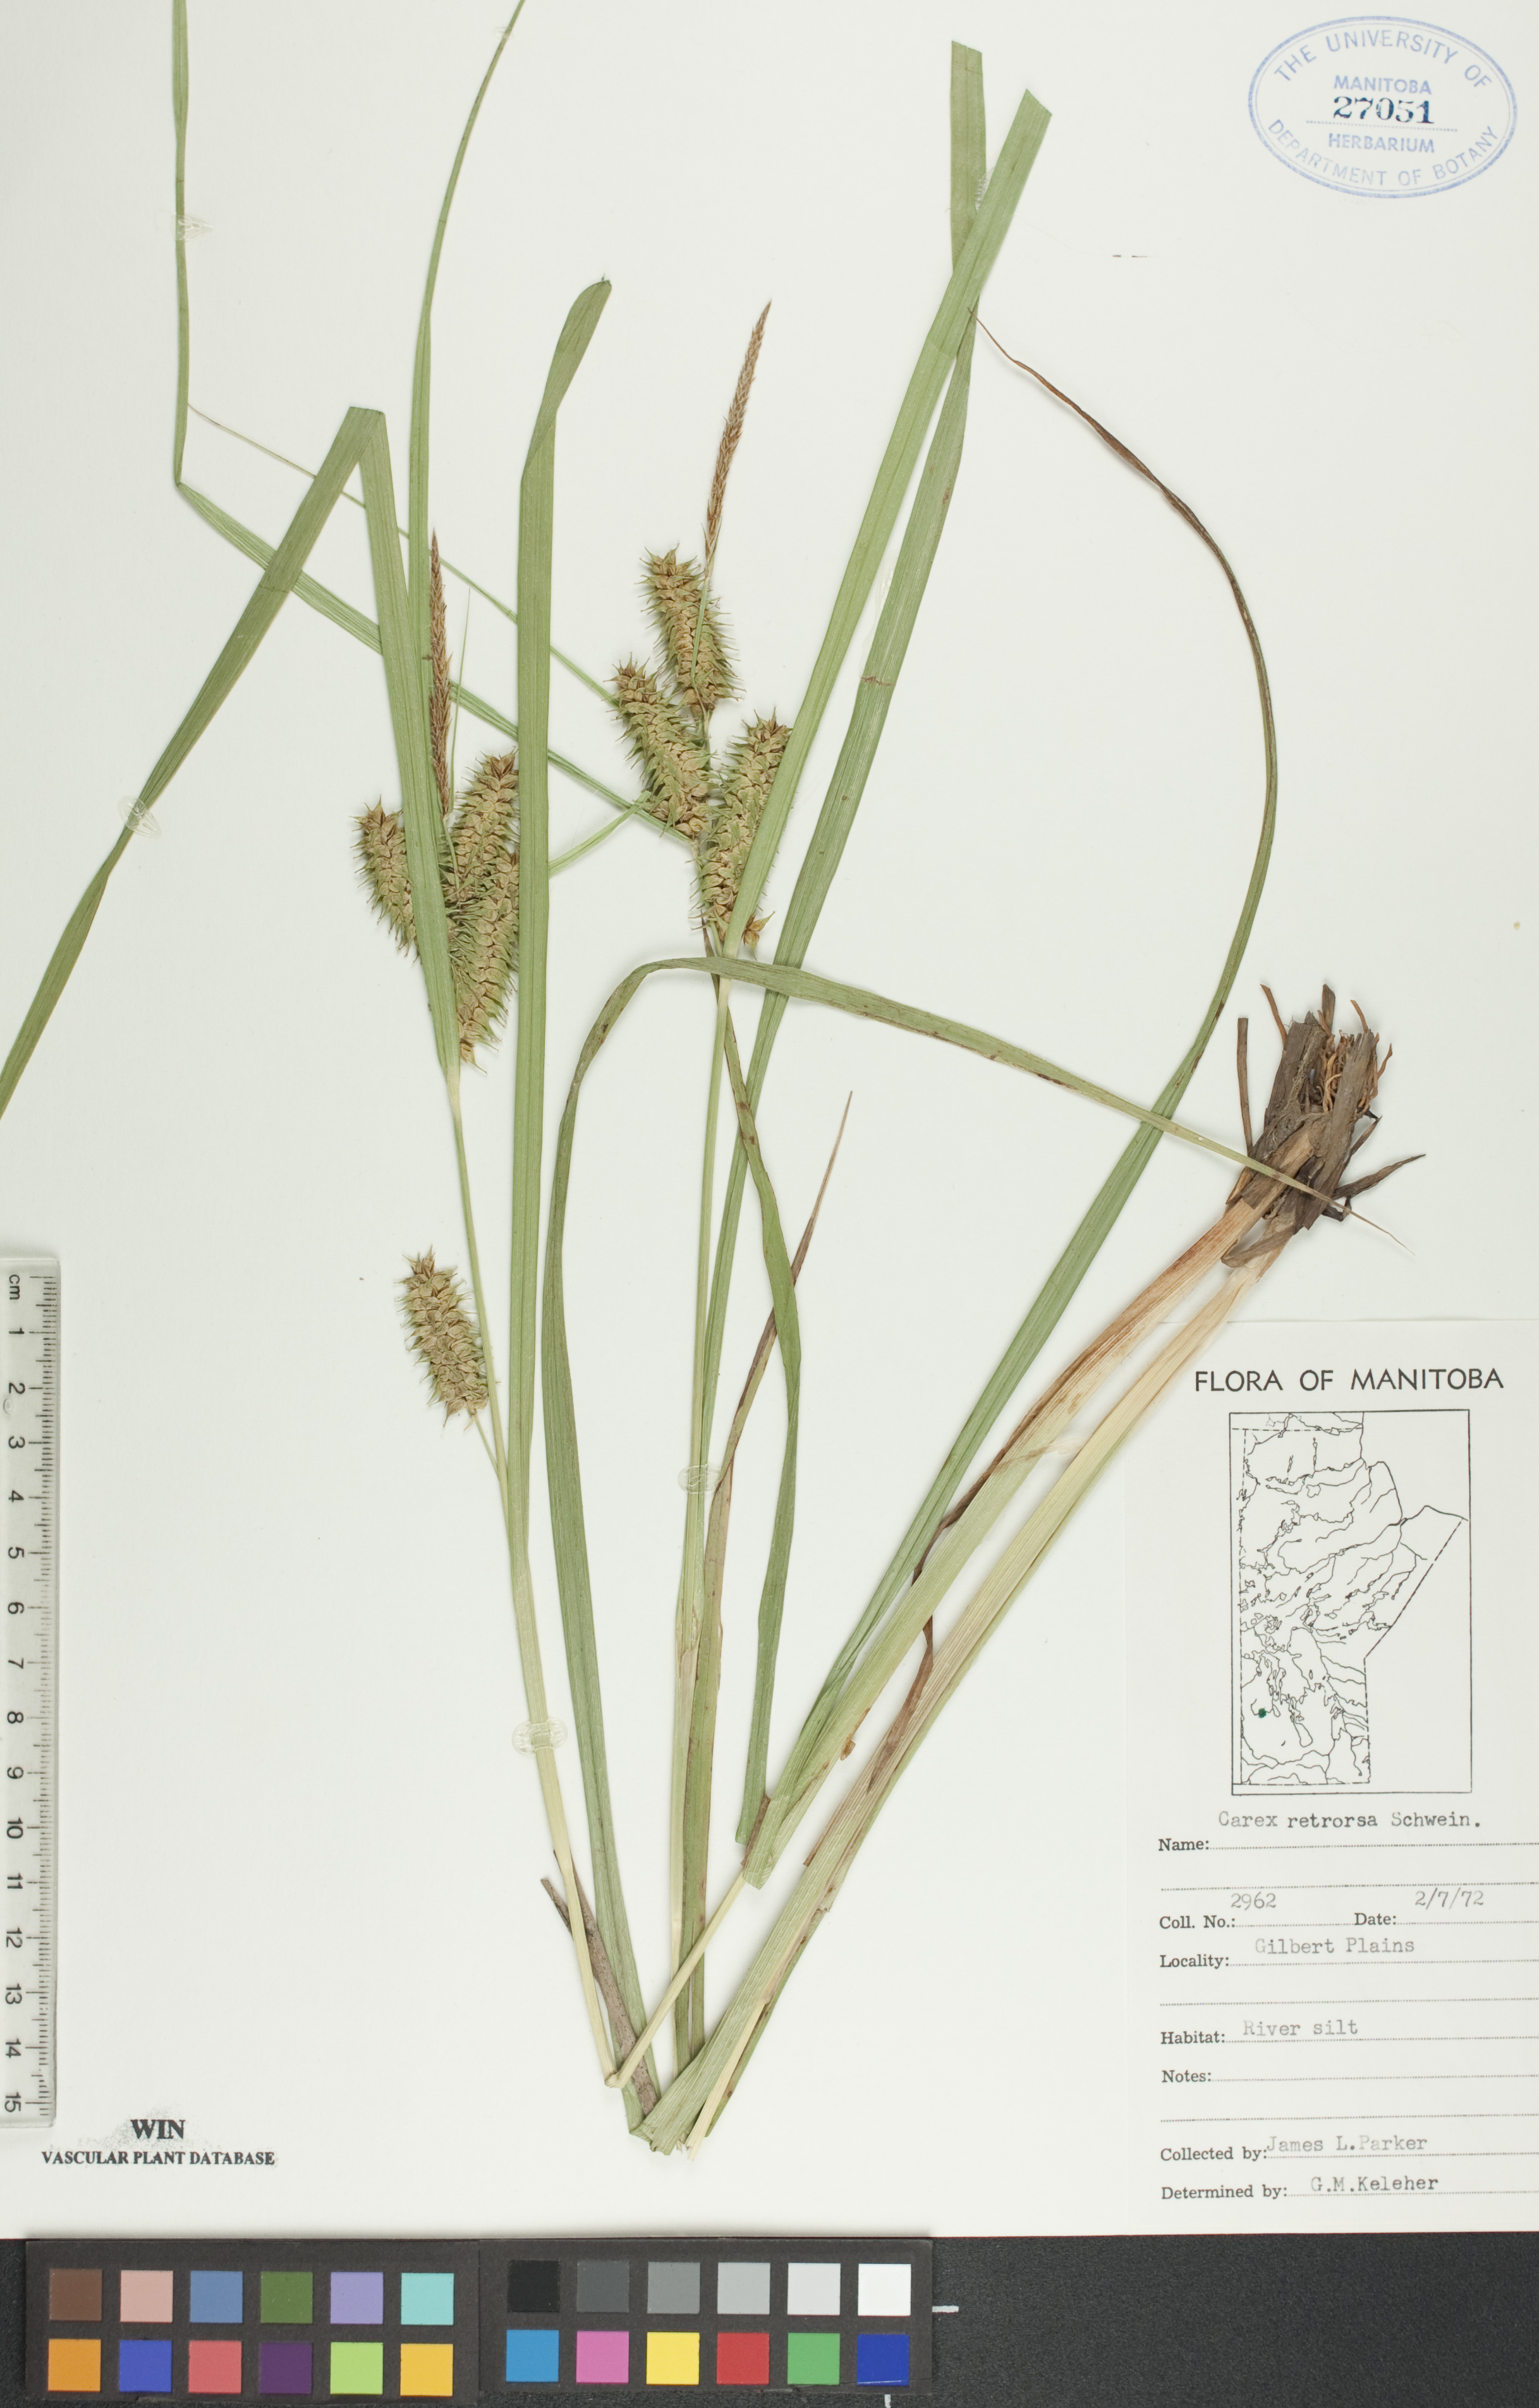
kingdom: Plantae
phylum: Tracheophyta
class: Liliopsida
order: Poales
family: Cyperaceae
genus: Carex
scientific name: Carex retrorsa
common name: Knot-sheath sedge
